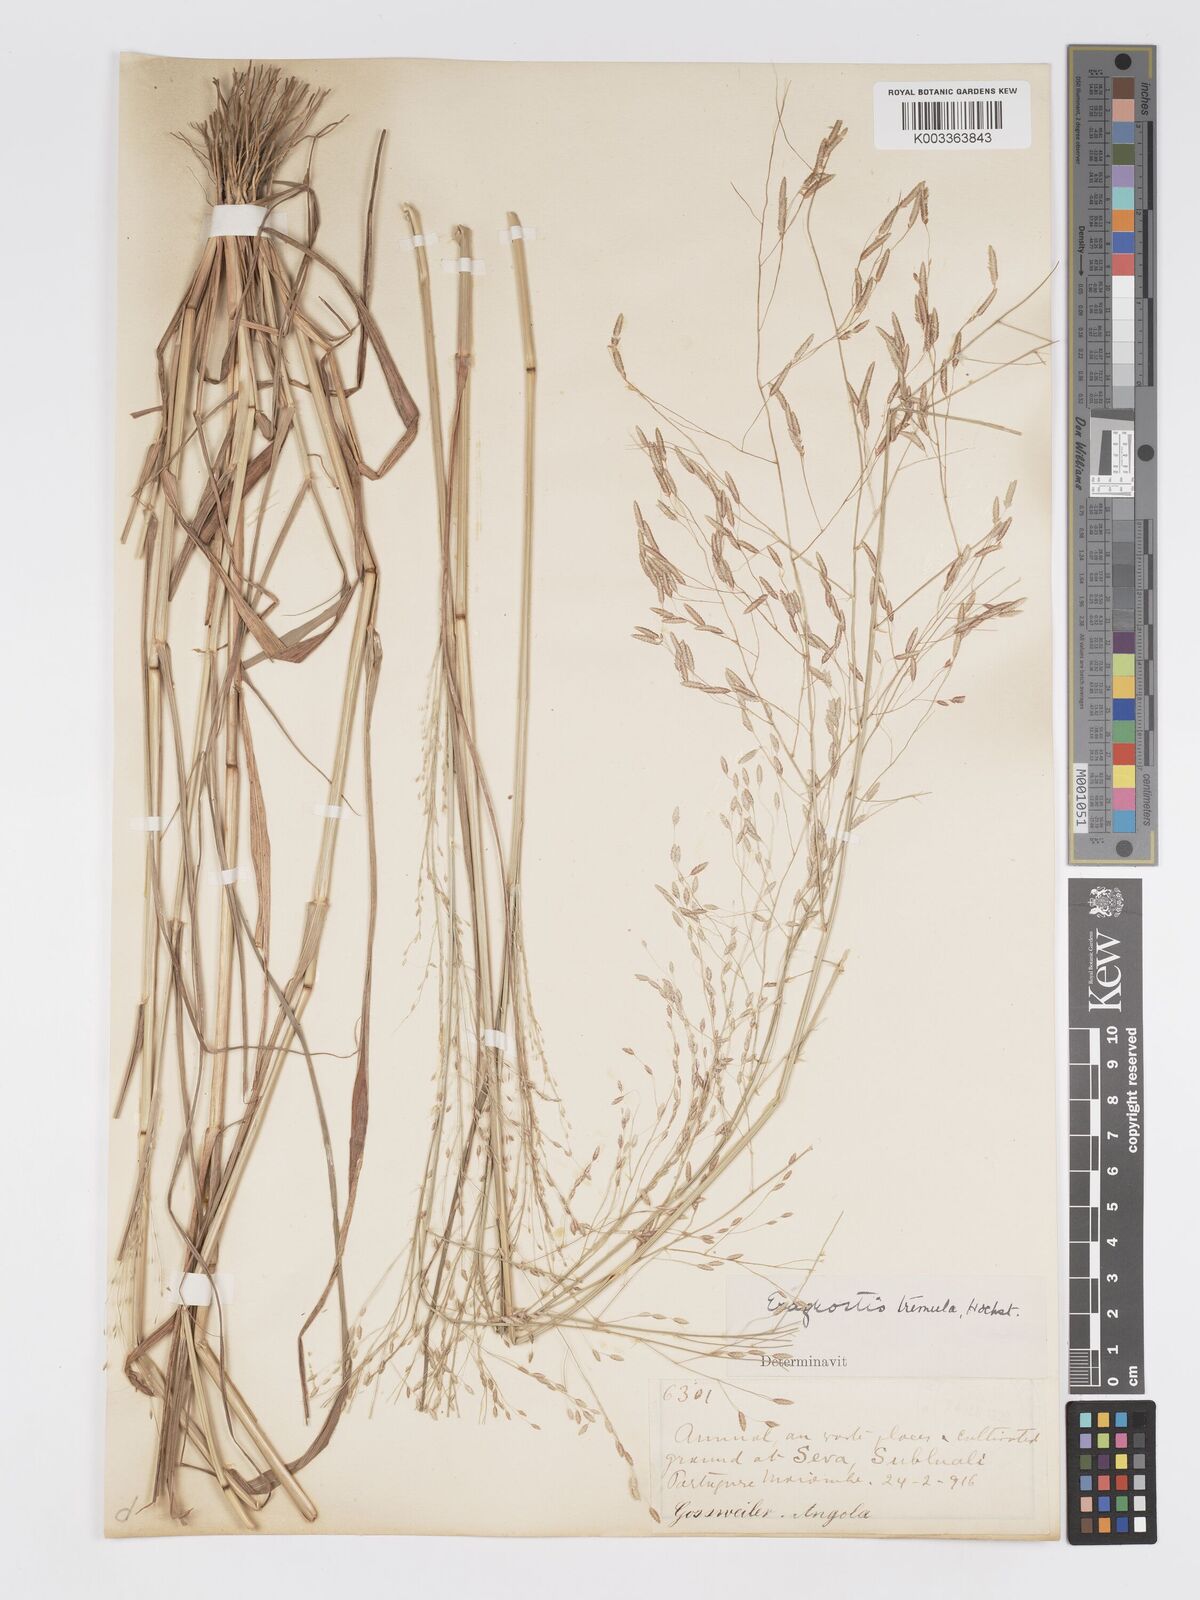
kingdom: Plantae
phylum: Tracheophyta
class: Liliopsida
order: Poales
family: Poaceae
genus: Eragrostis
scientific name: Eragrostis tremula
